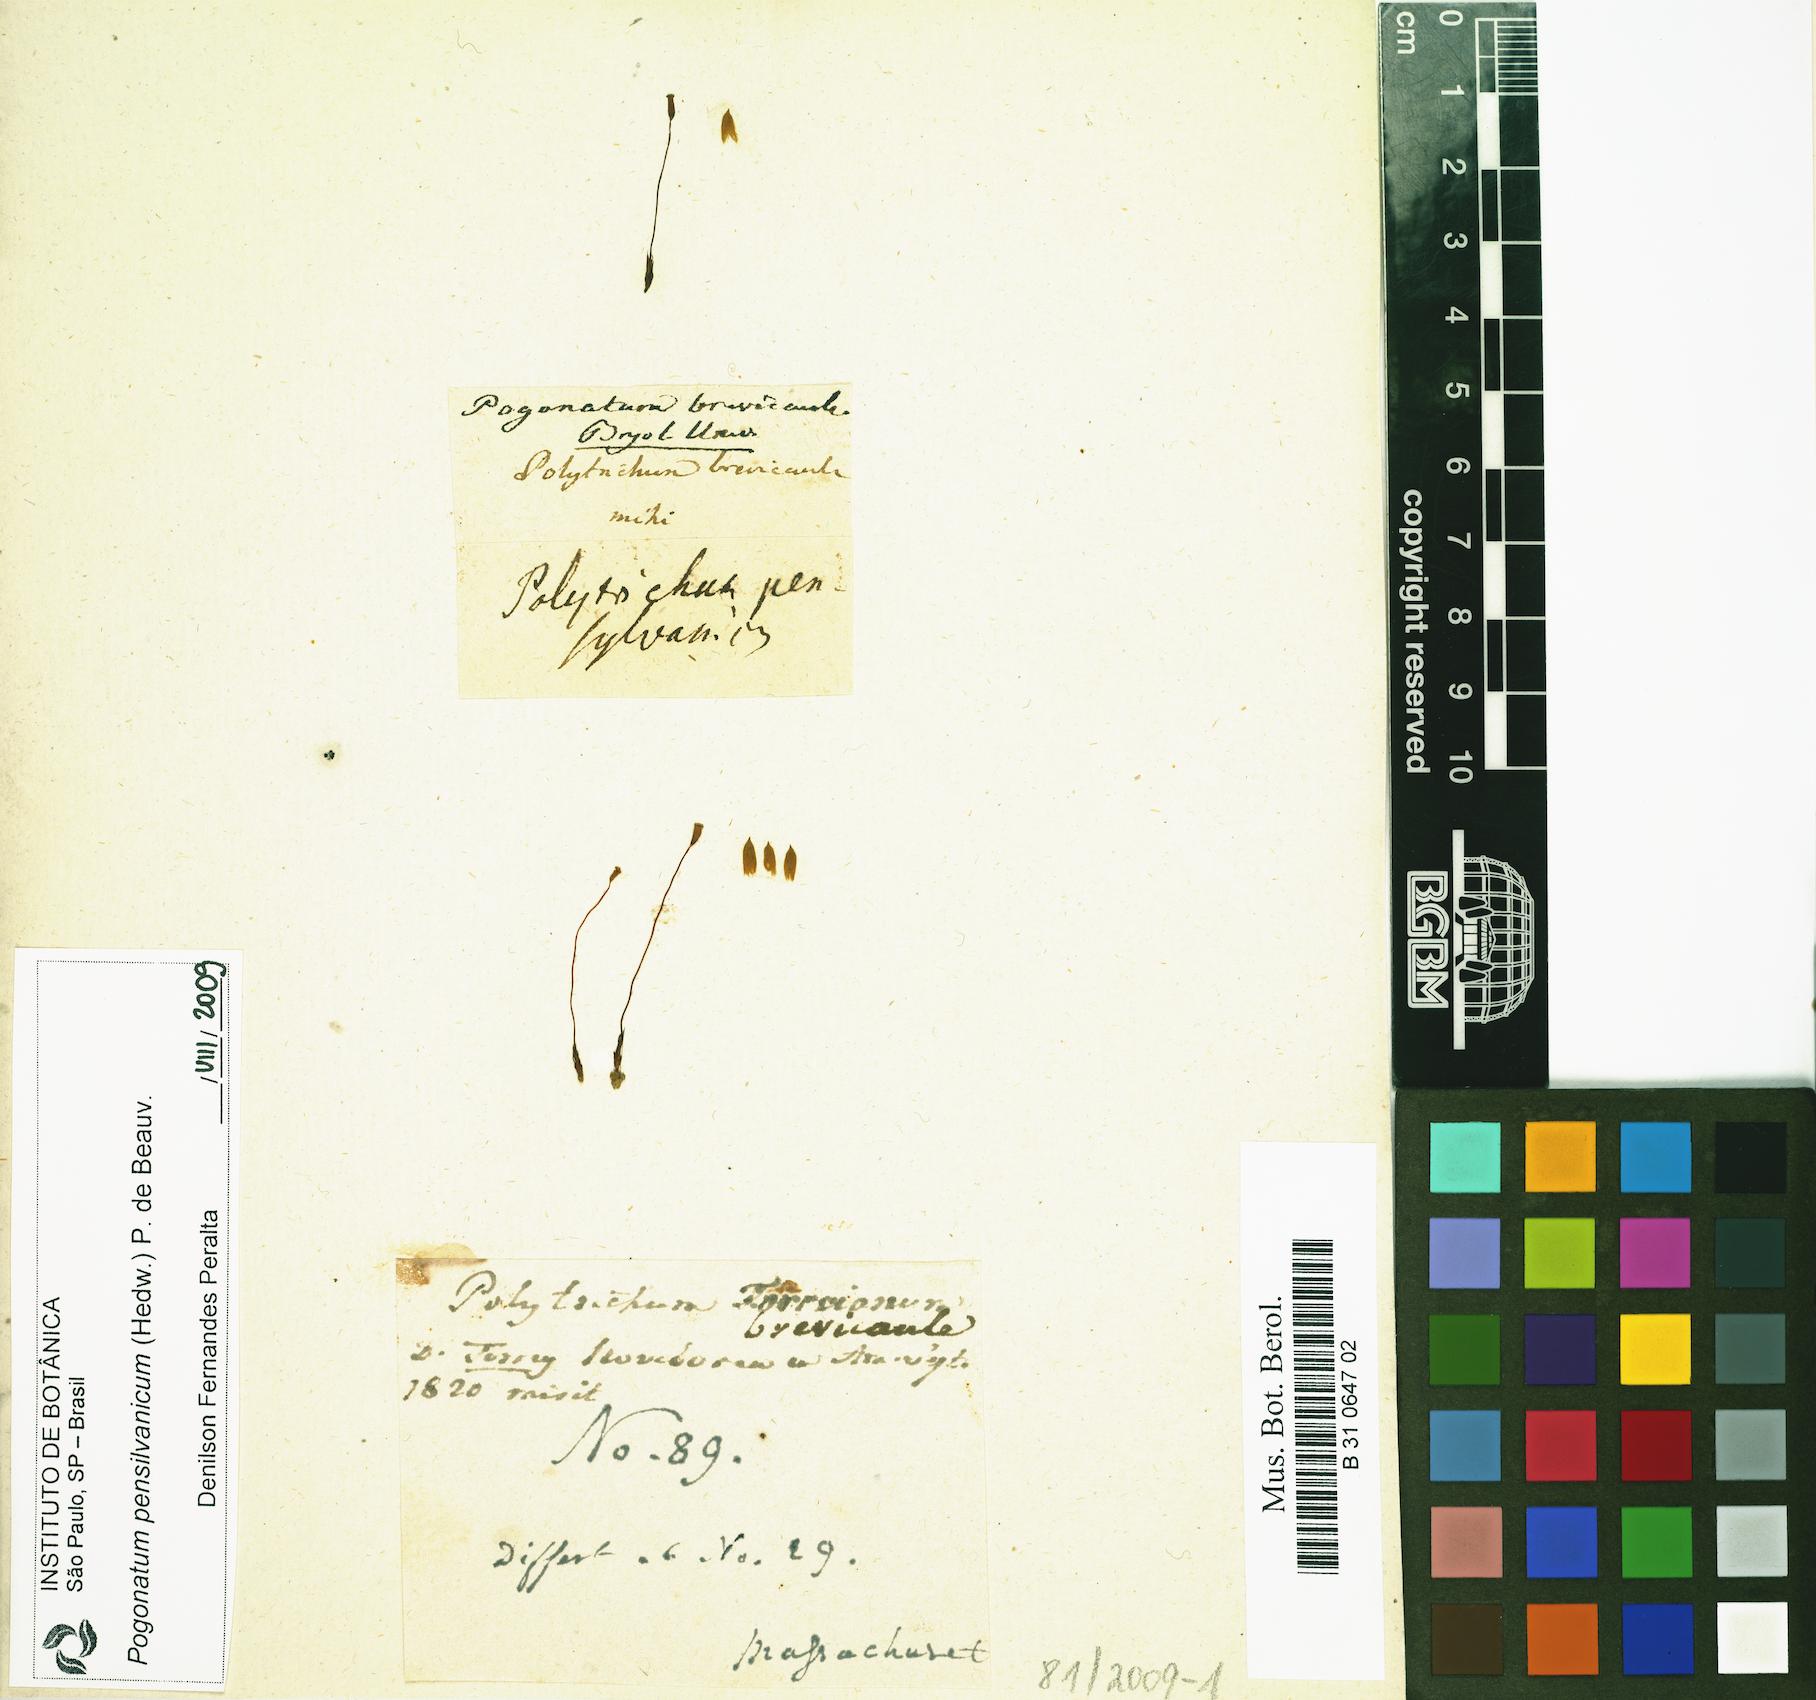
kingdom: Plantae
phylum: Bryophyta
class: Polytrichopsida
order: Polytrichales
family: Polytrichaceae
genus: Pogonatum
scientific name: Pogonatum pensilvanicum
